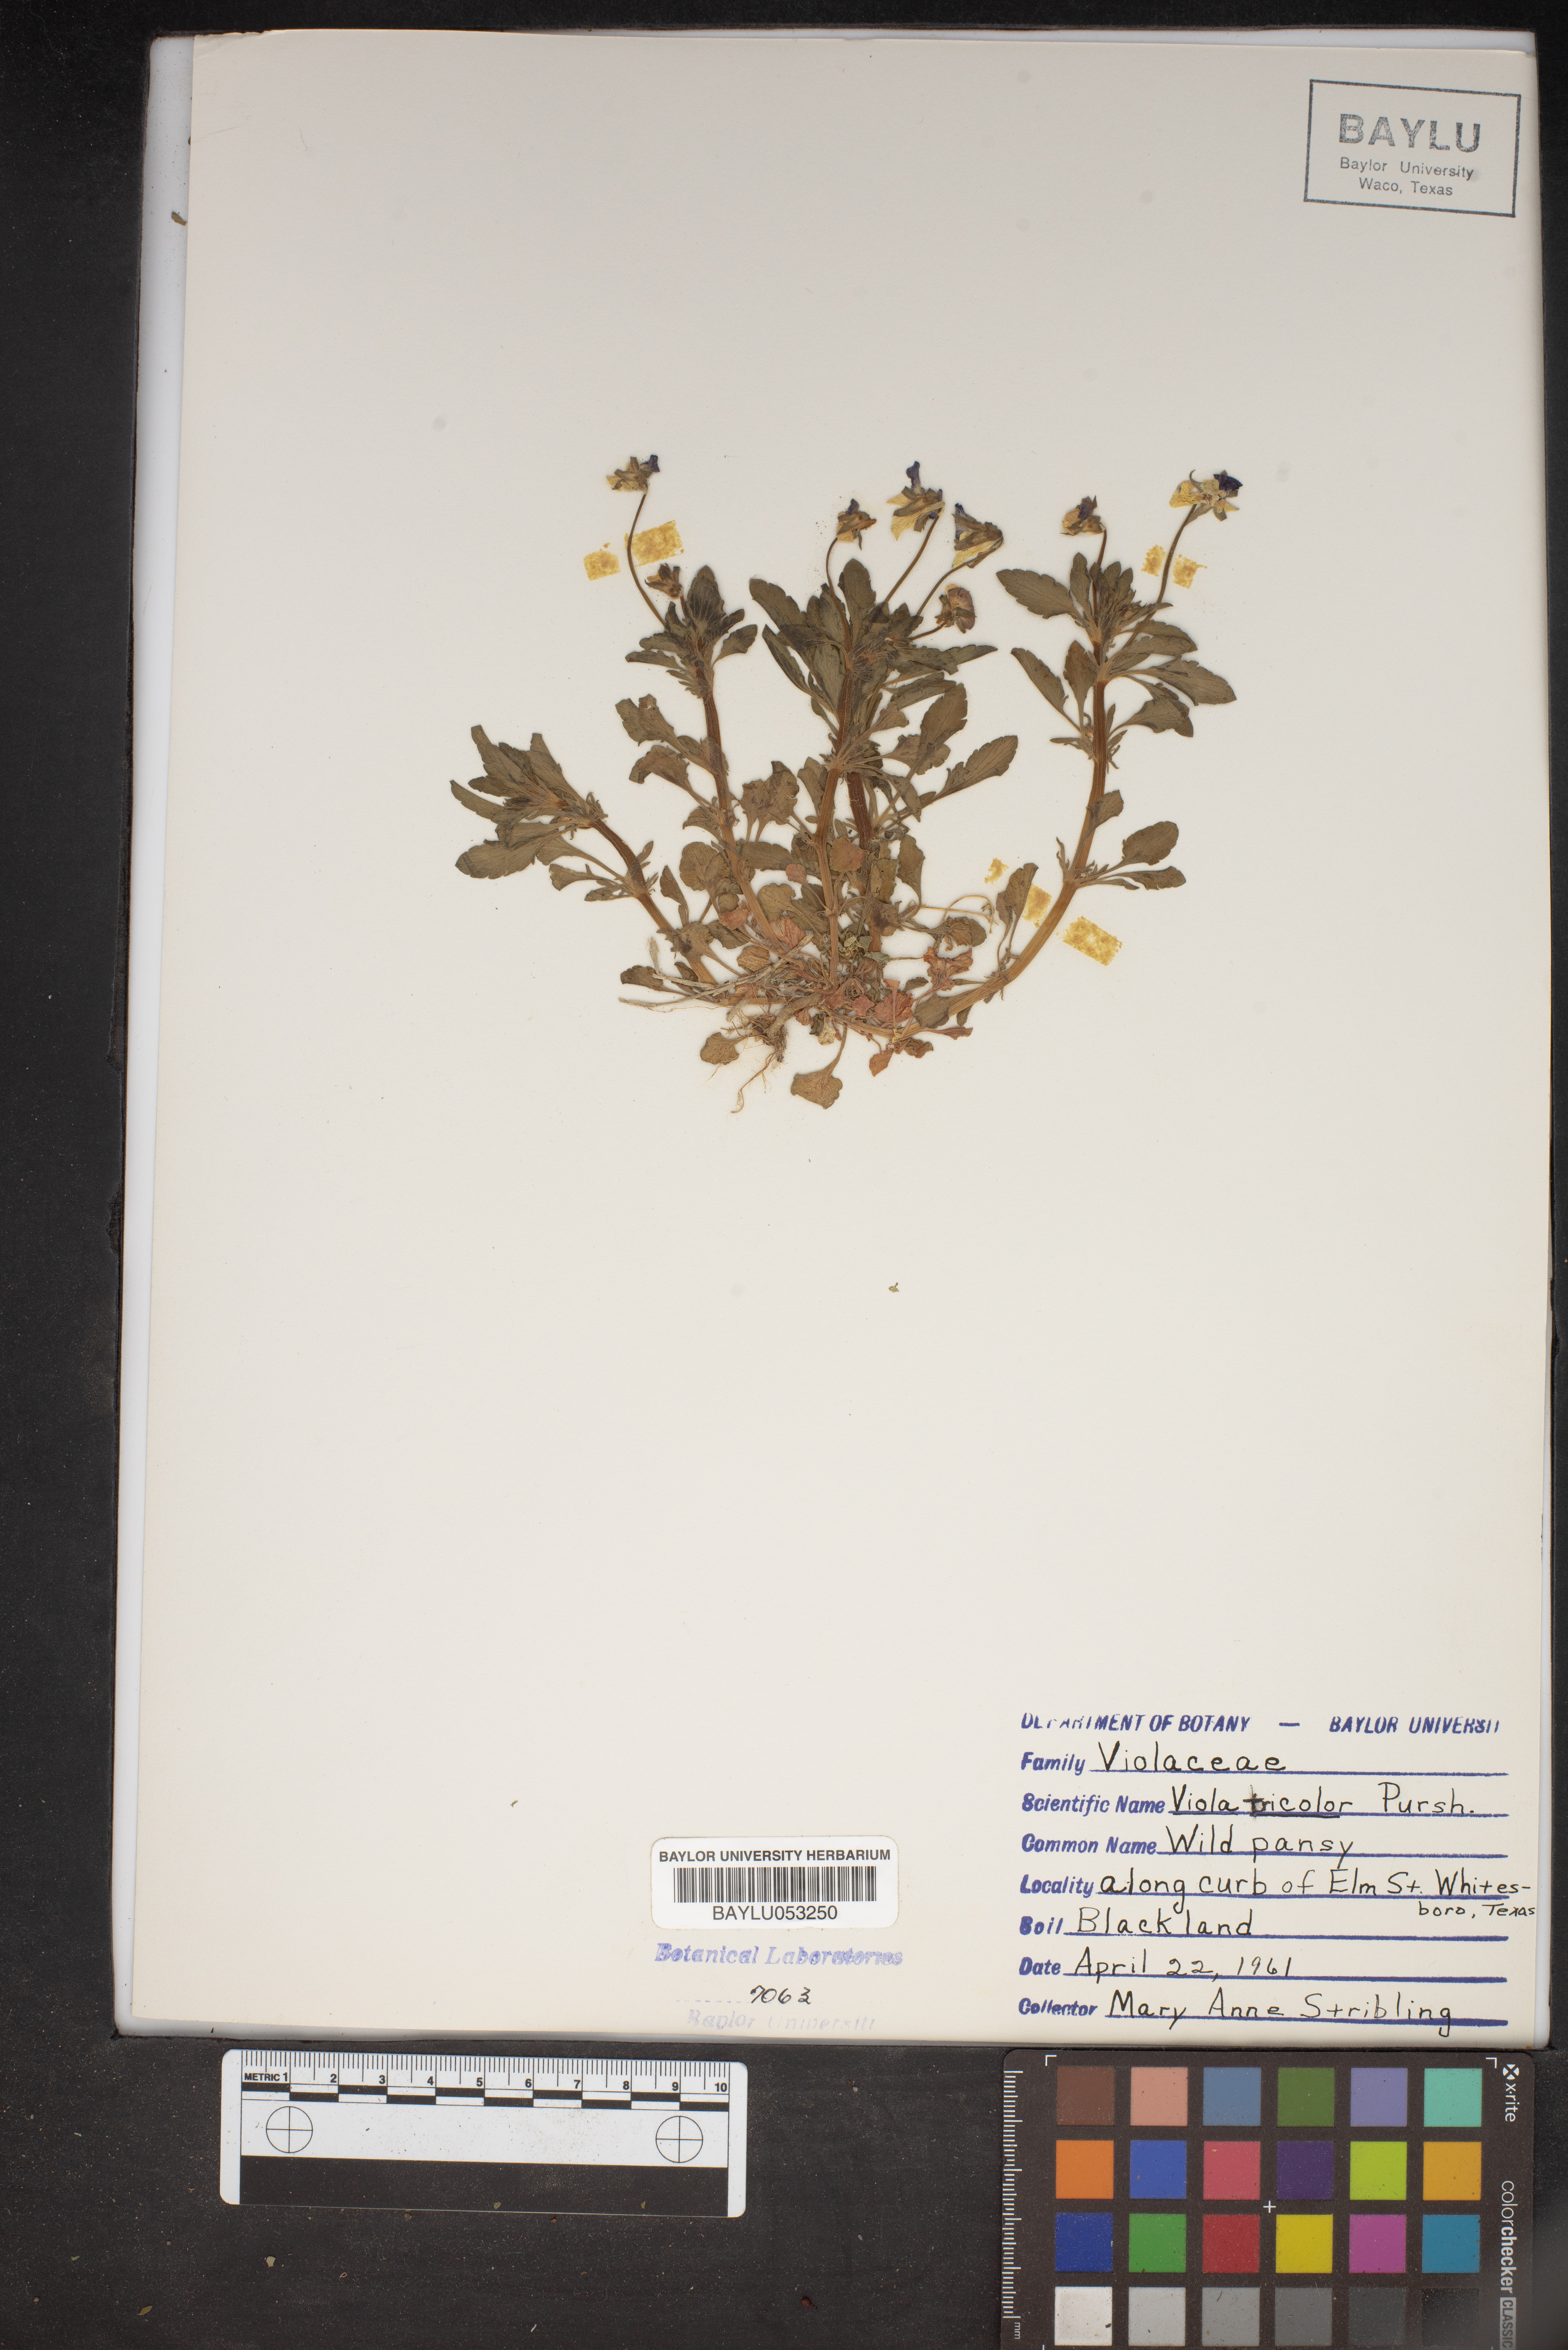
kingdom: Plantae
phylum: Tracheophyta
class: Magnoliopsida
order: Malpighiales
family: Violaceae
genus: Viola
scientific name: Viola tricolor
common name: Pansy
